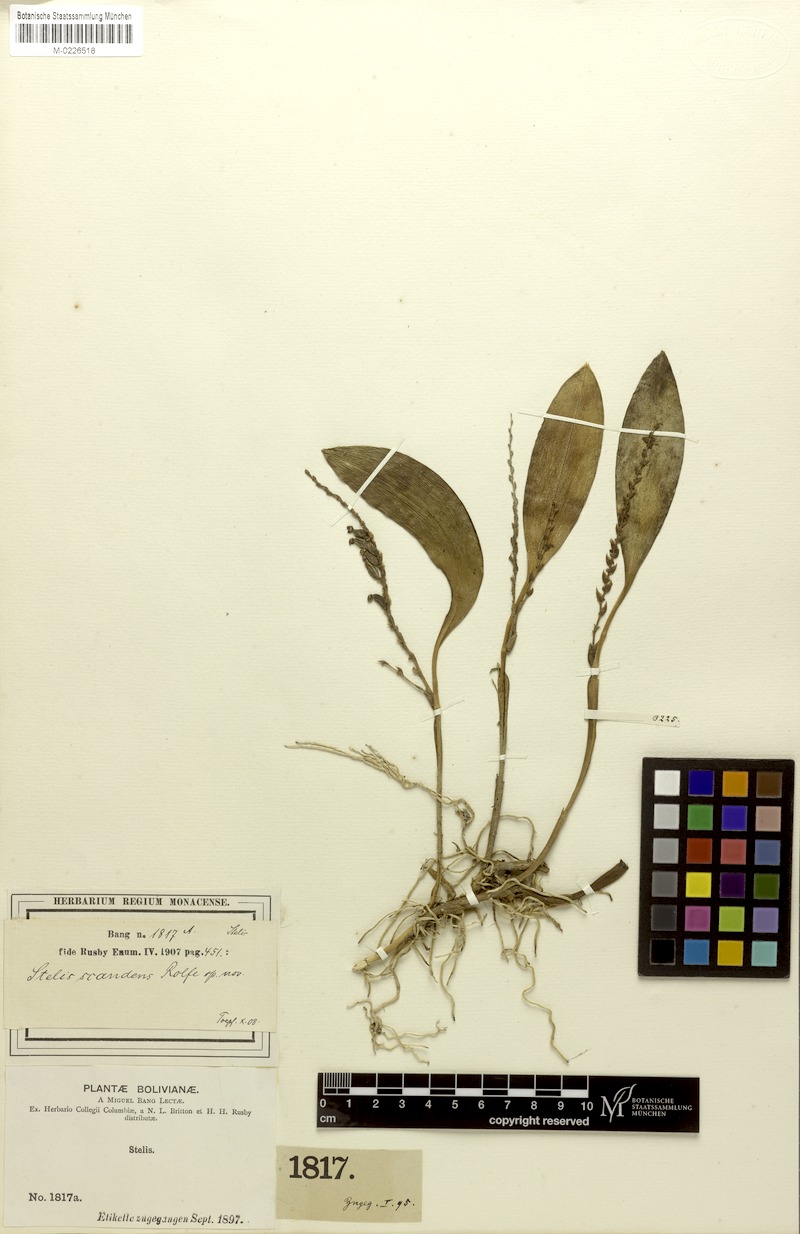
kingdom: Plantae
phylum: Tracheophyta
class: Liliopsida
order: Asparagales
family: Orchidaceae
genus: Stelis
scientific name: Stelis pusilla
